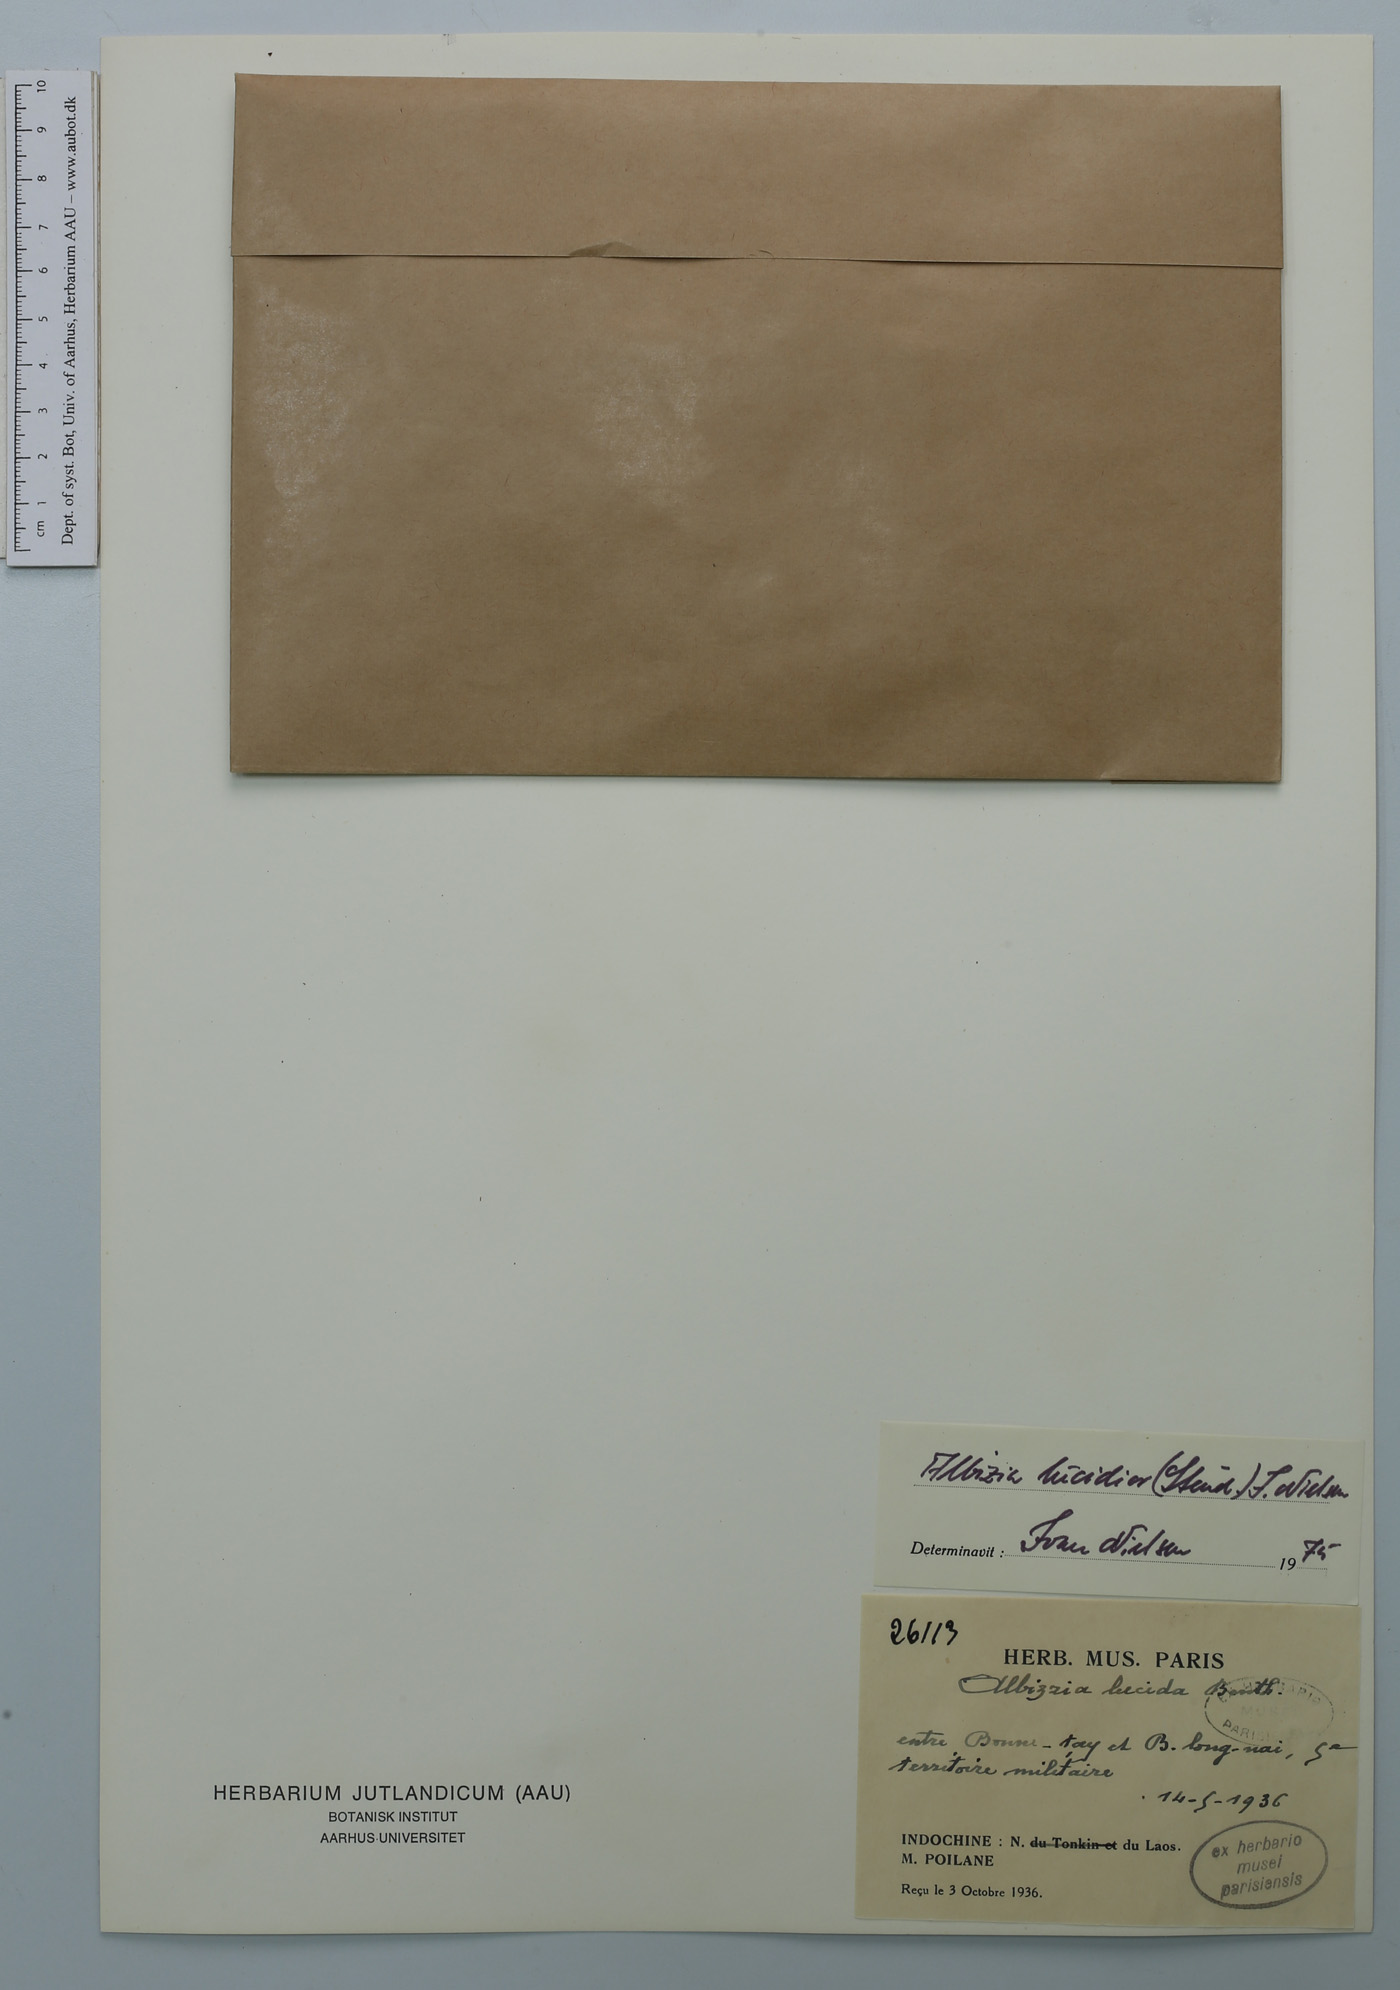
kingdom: Plantae
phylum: Tracheophyta
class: Magnoliopsida
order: Fabales
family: Fabaceae
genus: Albizia
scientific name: Albizia lucidior
